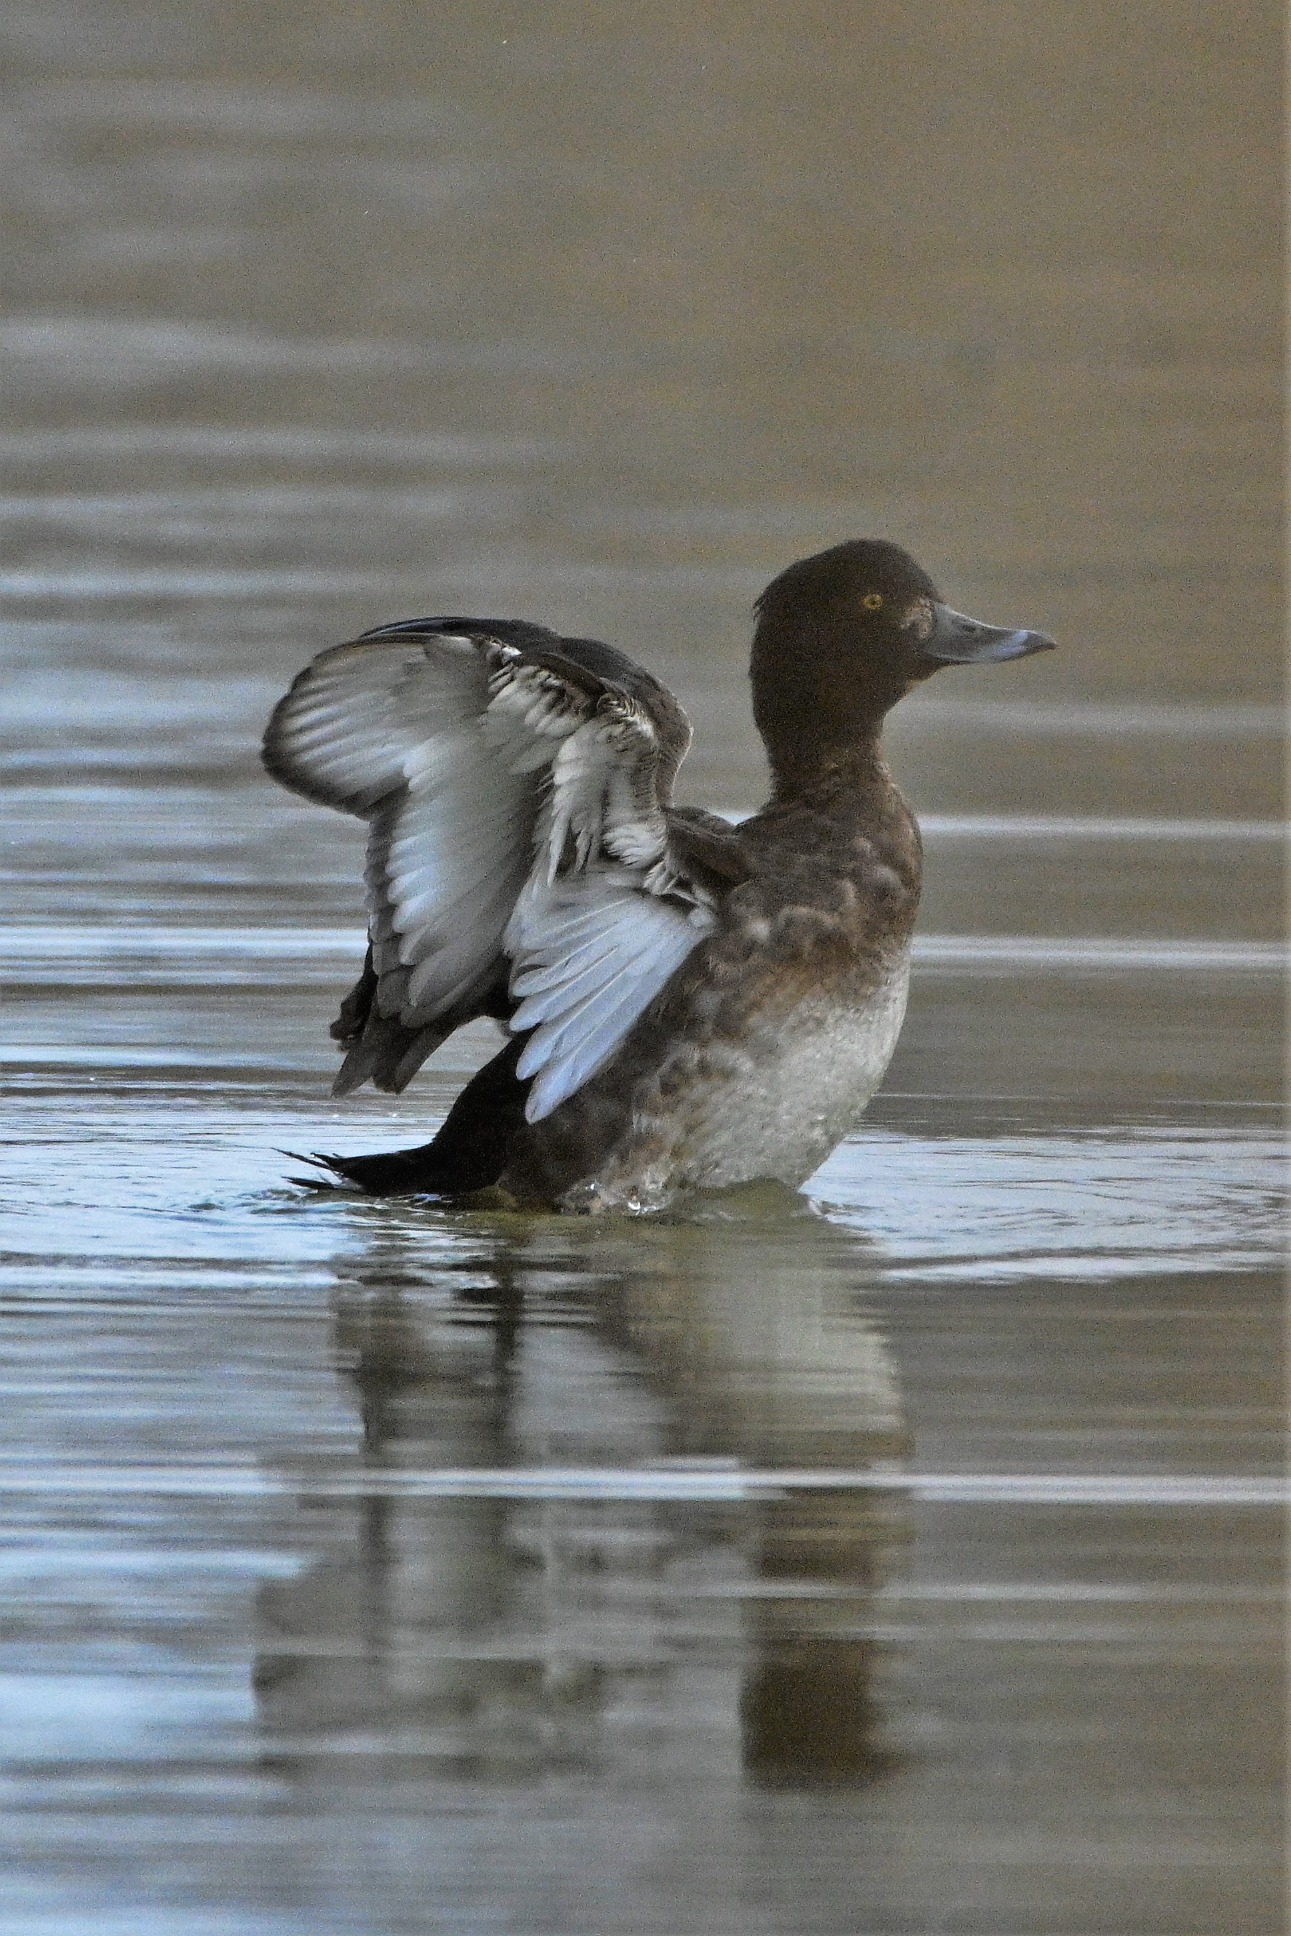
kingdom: Animalia
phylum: Chordata
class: Aves
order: Anseriformes
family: Anatidae
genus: Aythya
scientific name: Aythya fuligula
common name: Troldand
